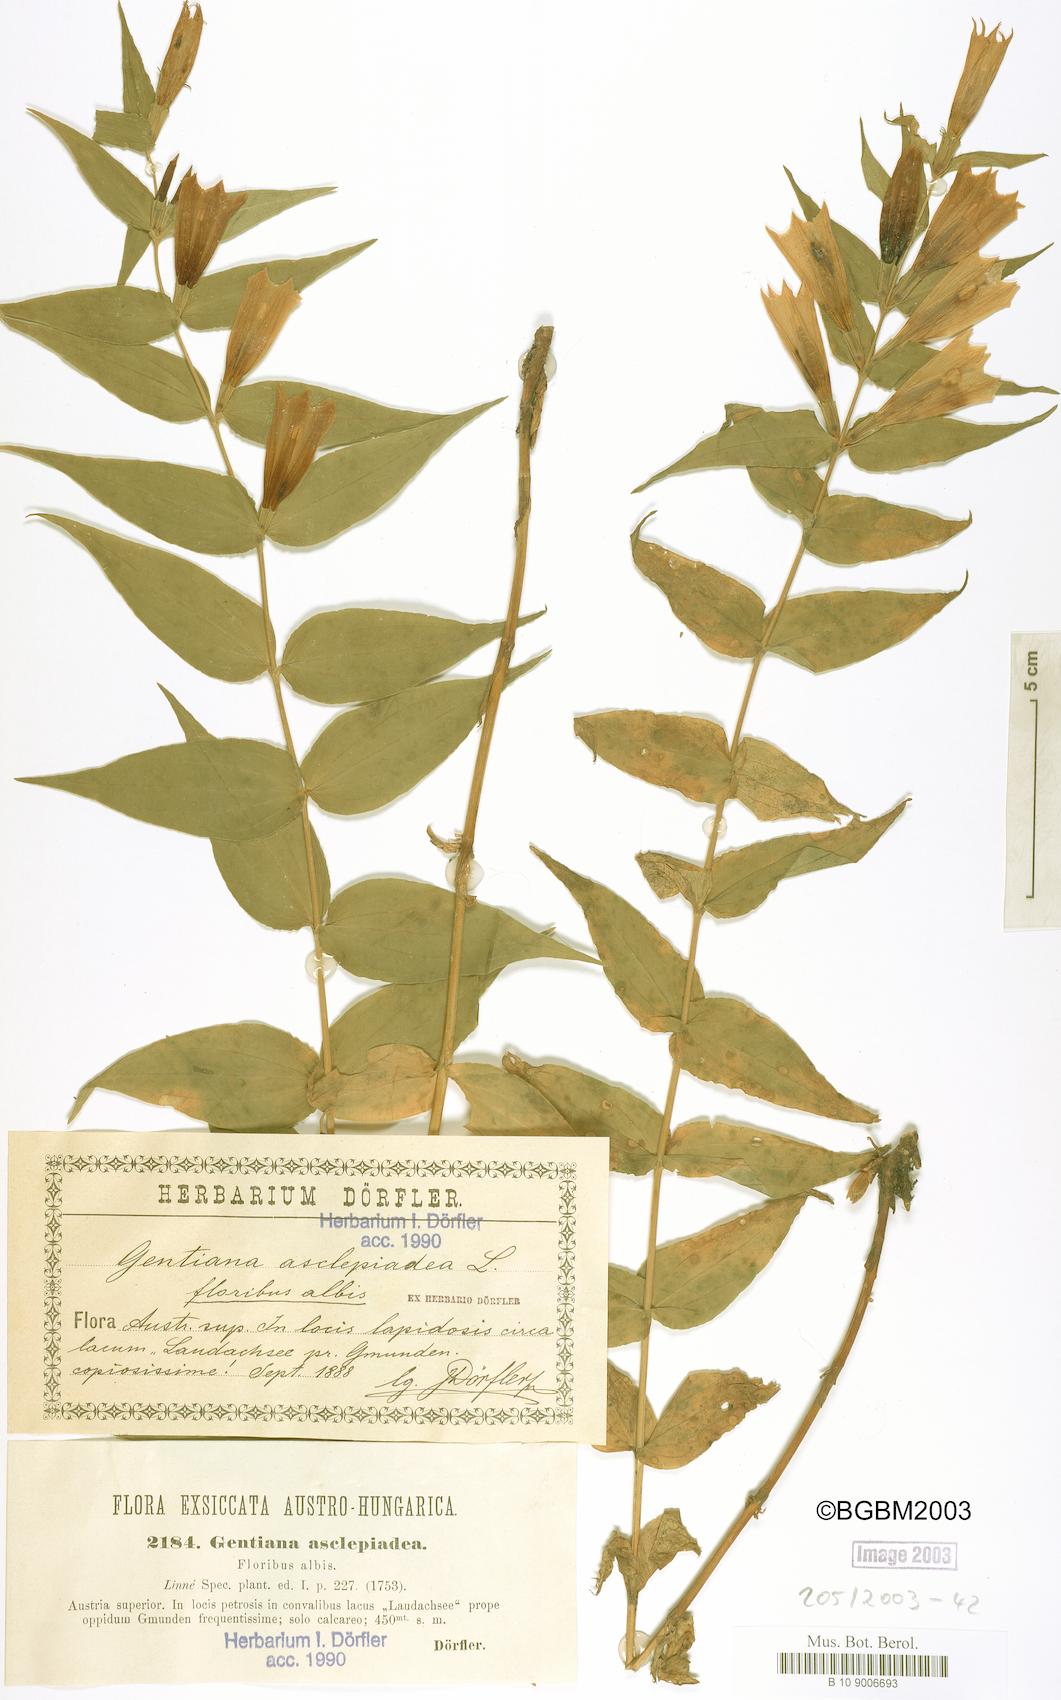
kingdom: Plantae
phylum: Tracheophyta
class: Magnoliopsida
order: Gentianales
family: Gentianaceae
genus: Gentiana
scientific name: Gentiana asclepiadea
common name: Willow gentian
